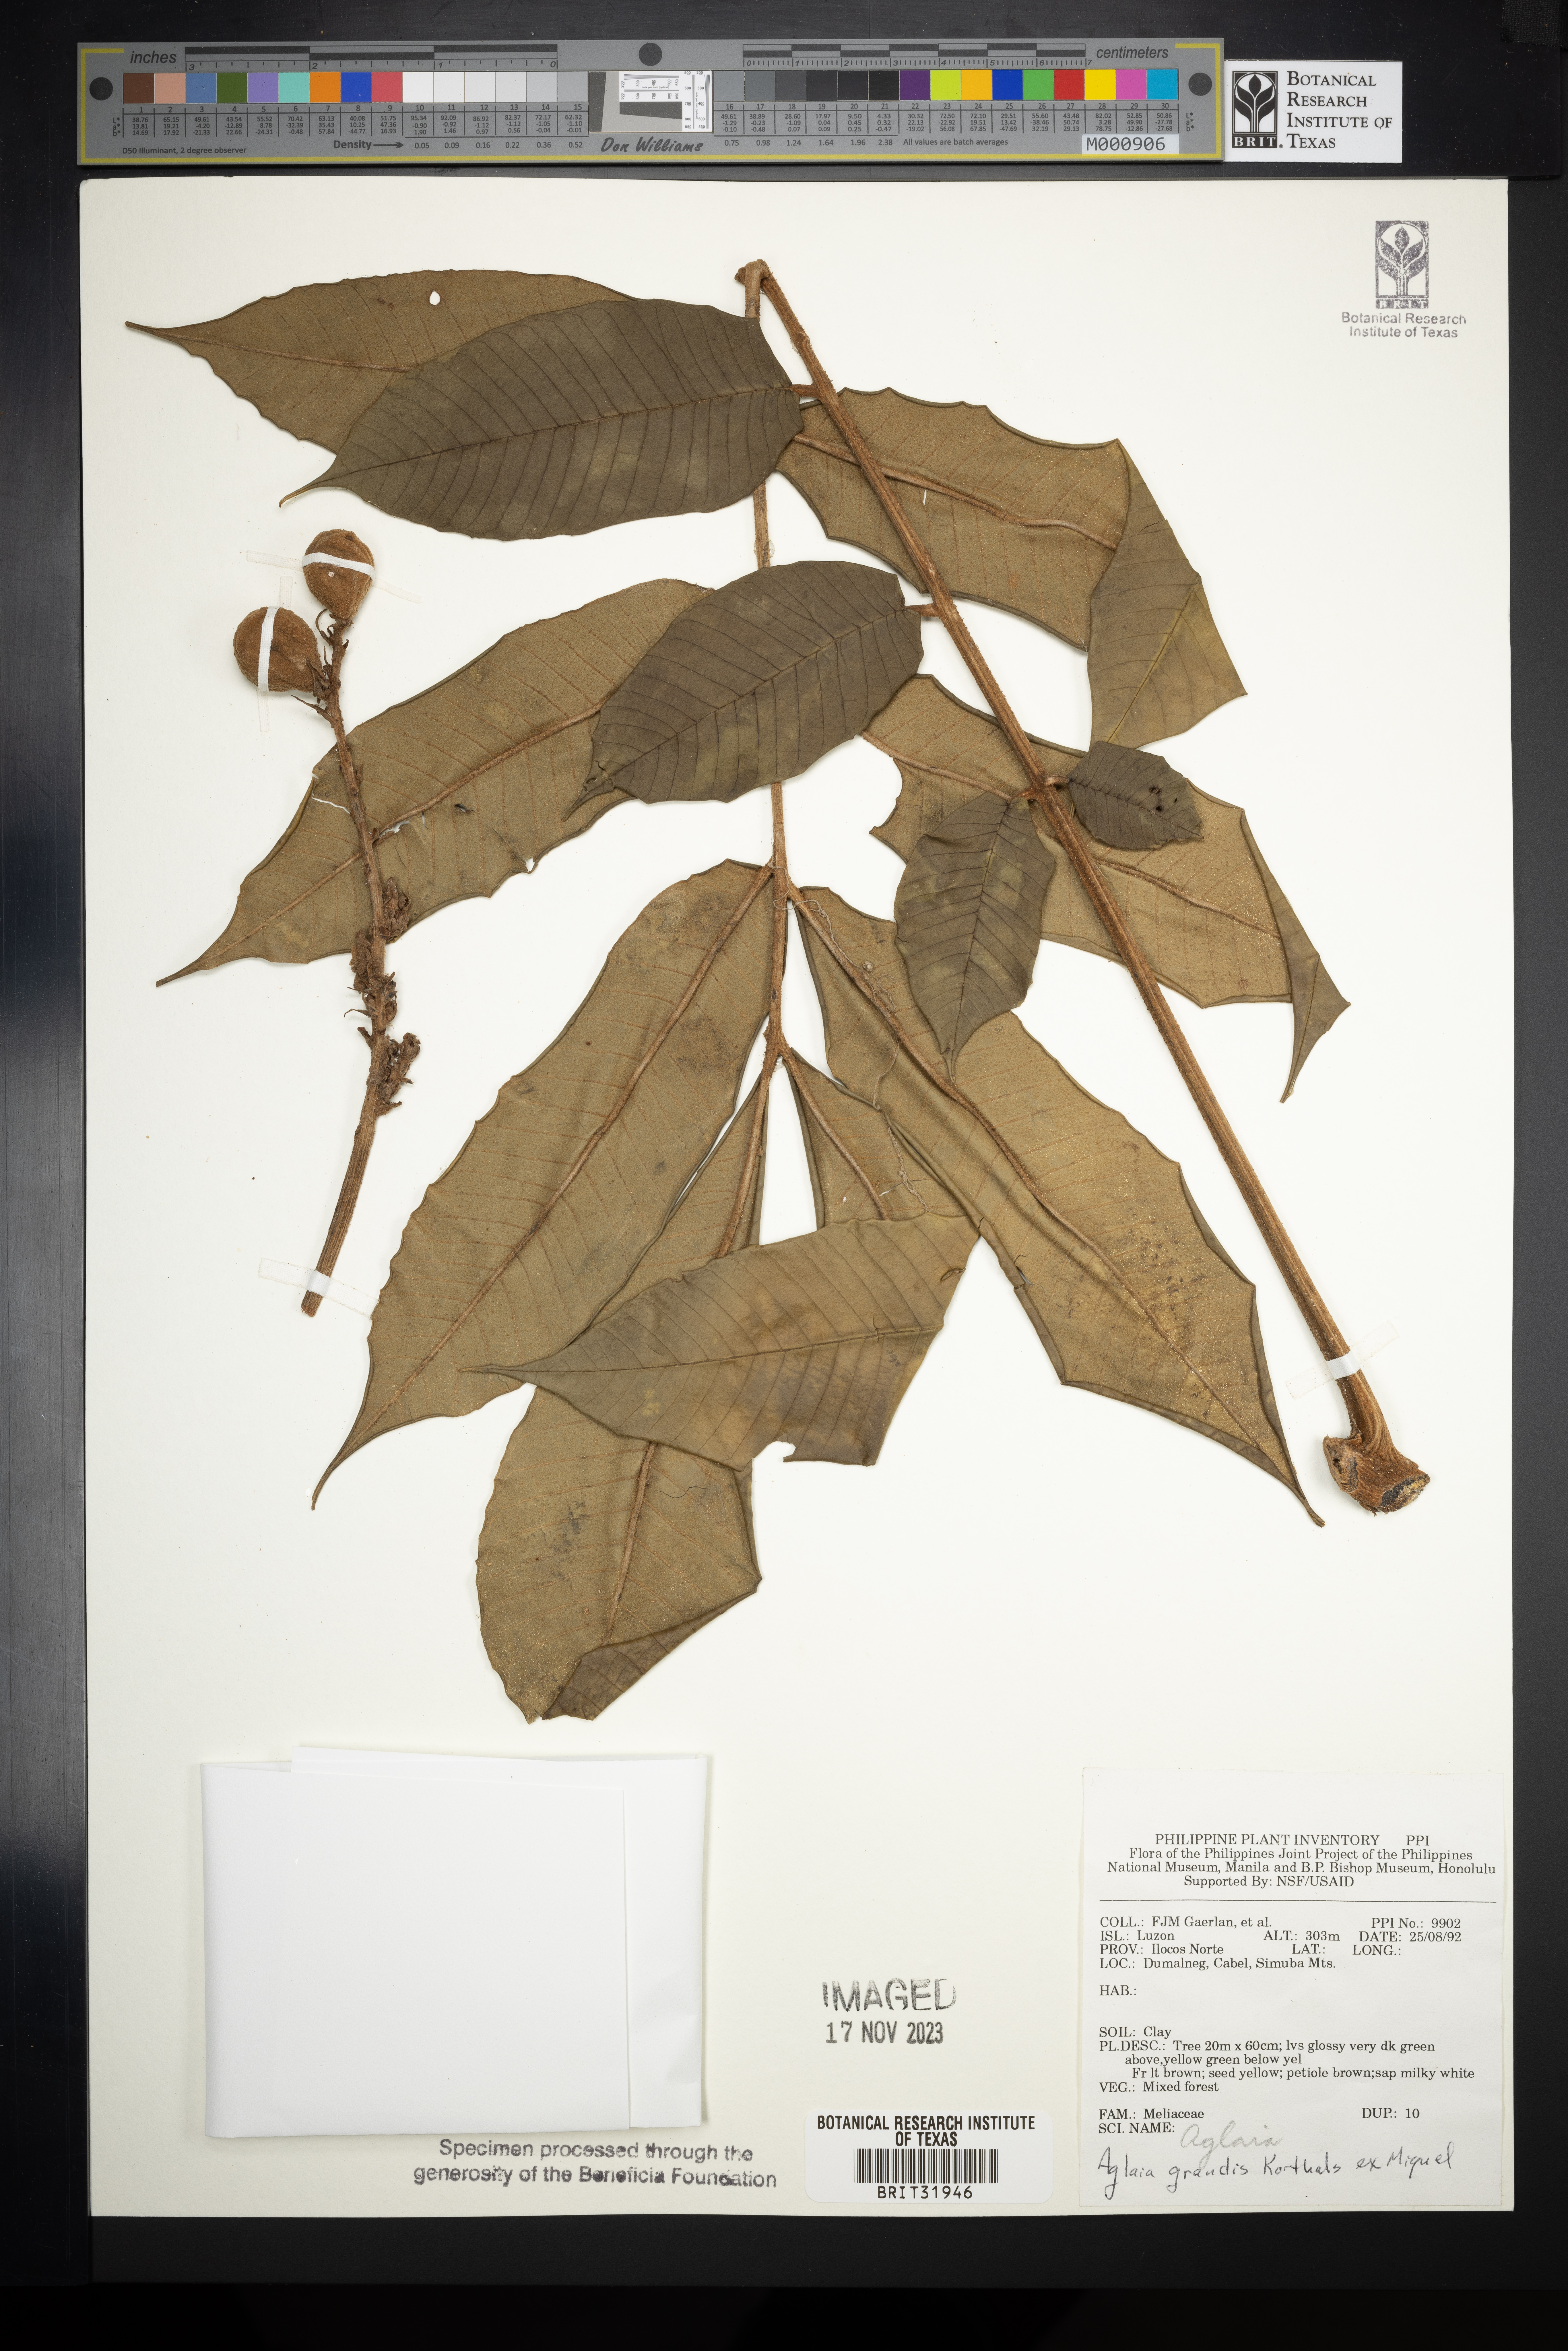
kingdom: Plantae
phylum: Tracheophyta
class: Magnoliopsida
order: Sapindales
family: Meliaceae
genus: Aglaia
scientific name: Aglaia grandis
